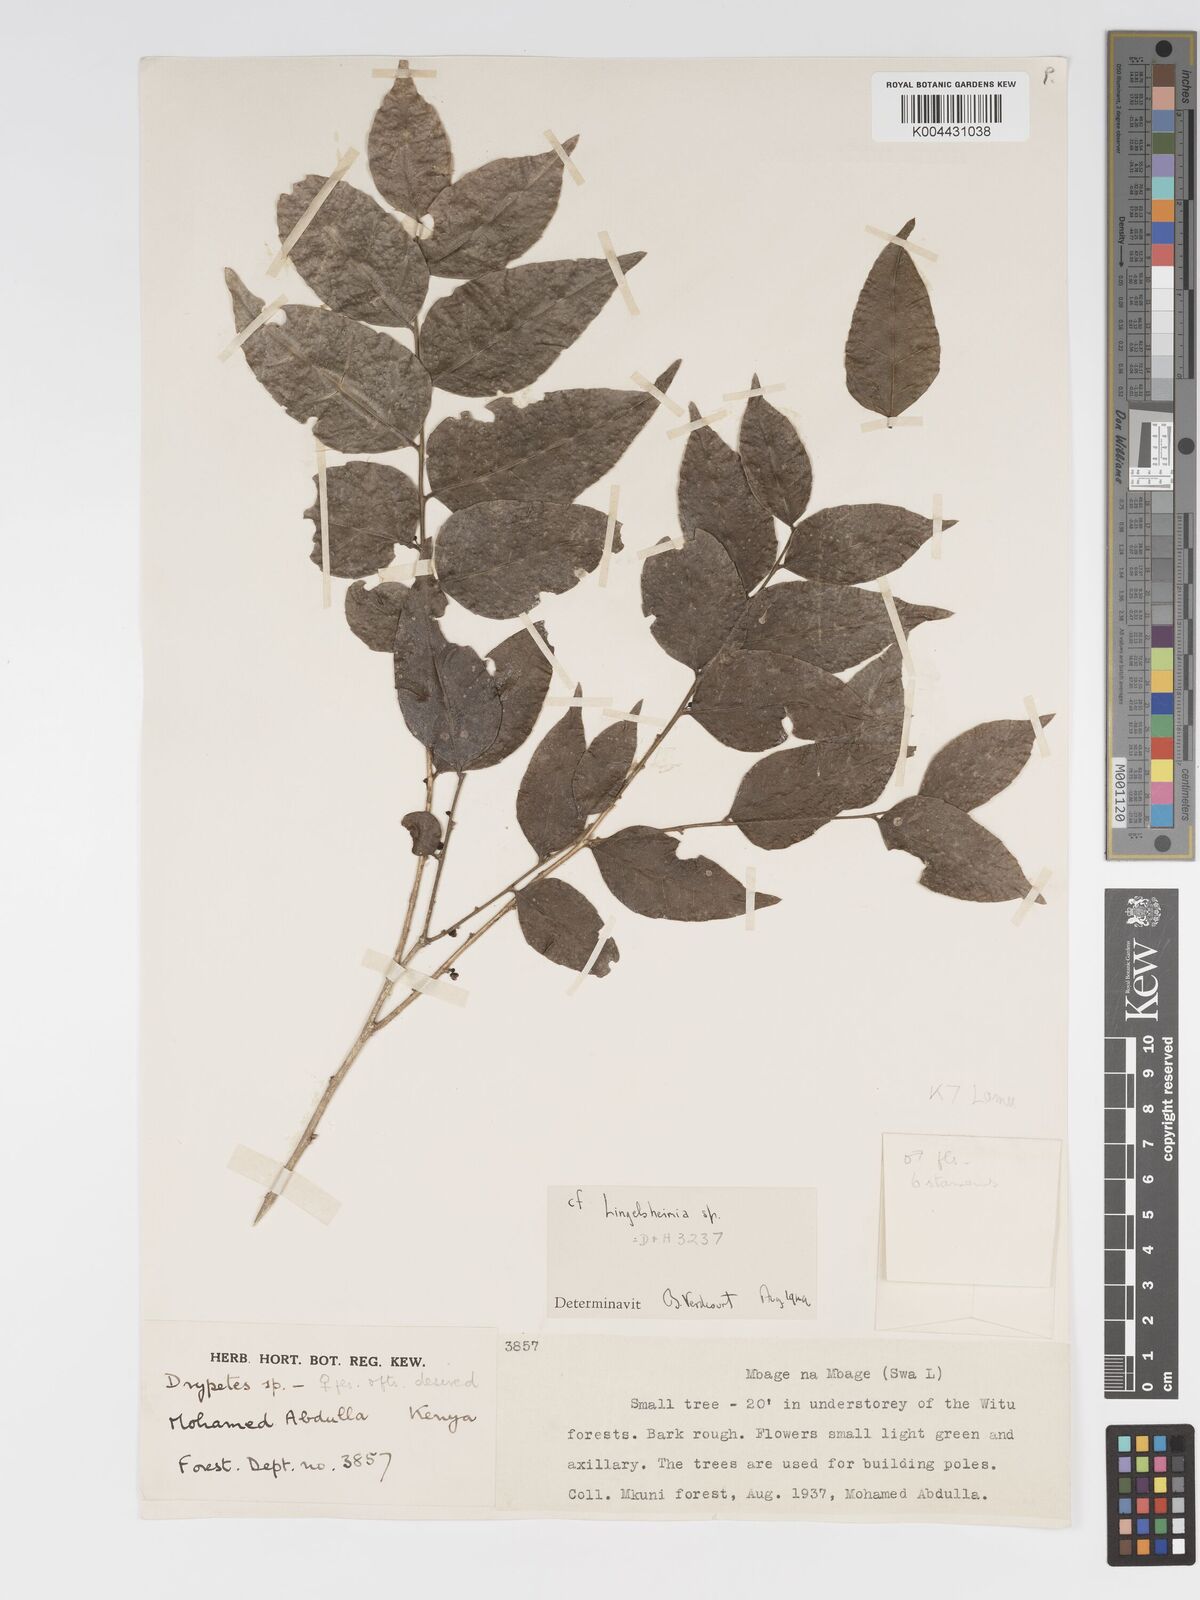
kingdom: Plantae
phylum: Tracheophyta
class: Magnoliopsida
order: Malpighiales
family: Putranjivaceae
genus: Drypetes
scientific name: Drypetes parvifolia
